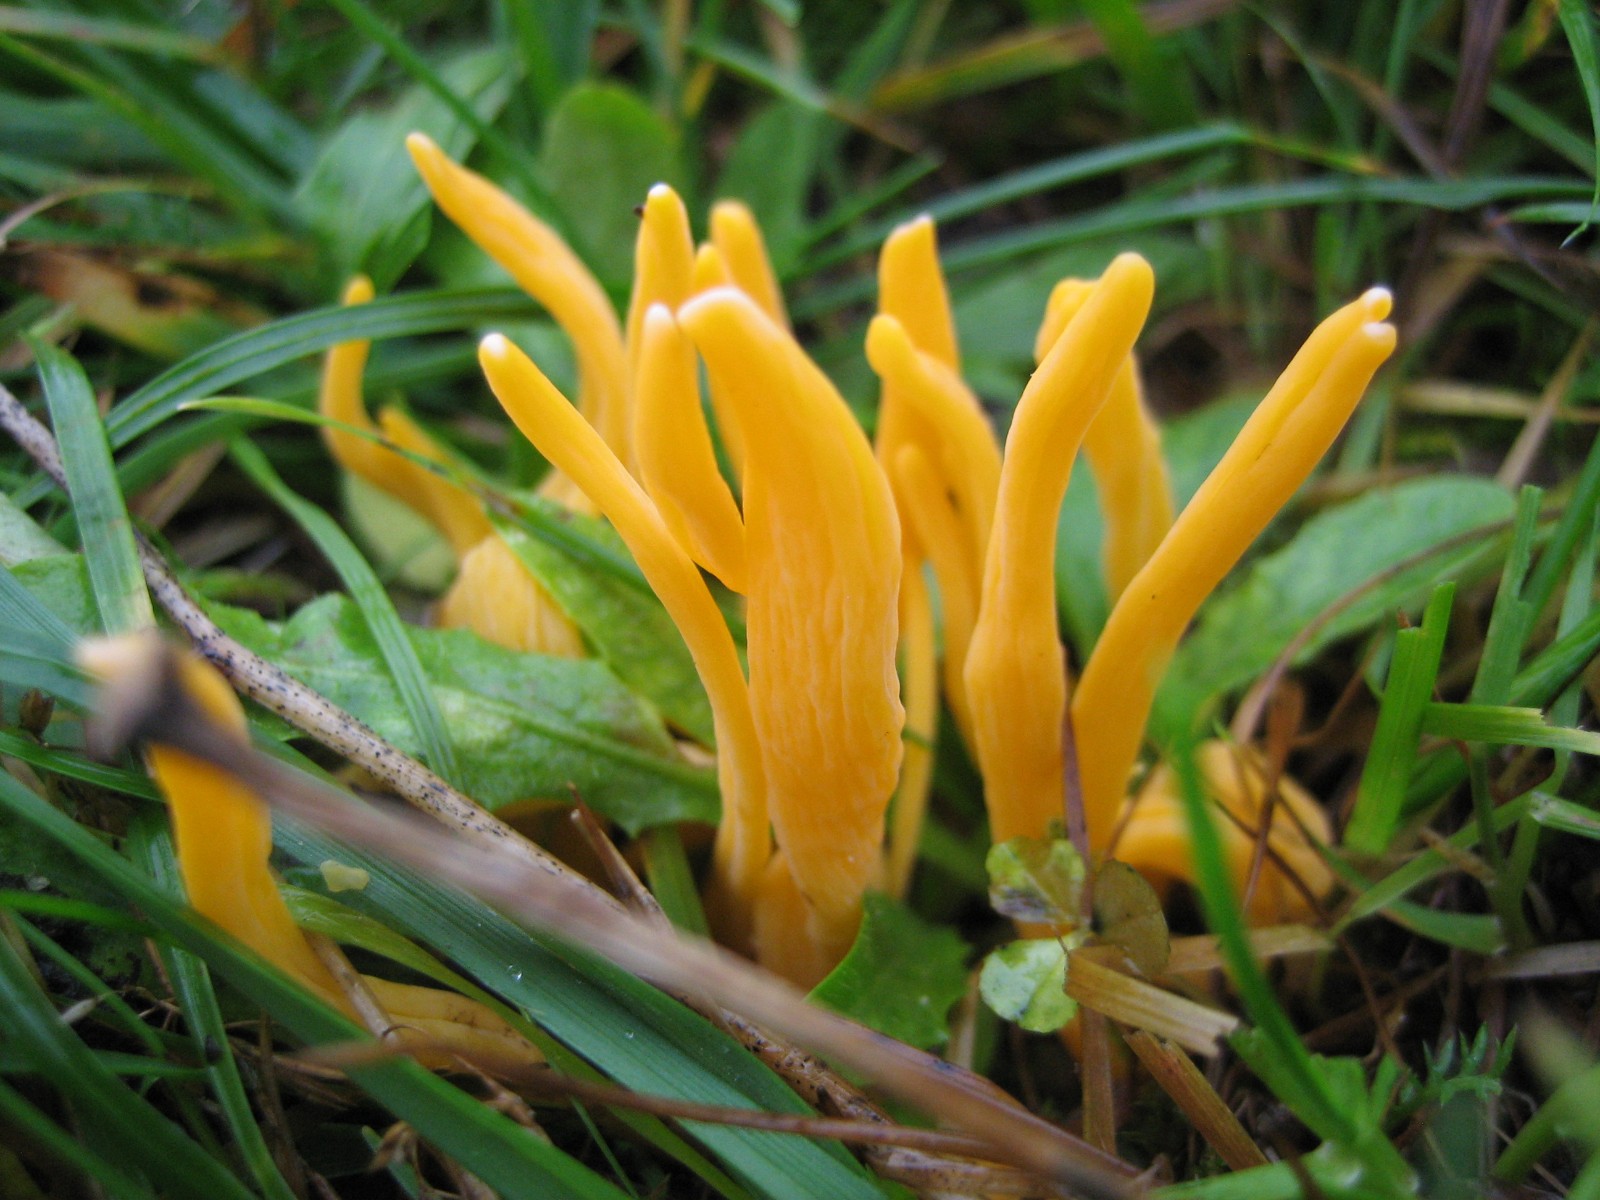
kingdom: Fungi
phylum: Basidiomycota
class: Agaricomycetes
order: Agaricales
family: Clavariaceae
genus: Clavulinopsis
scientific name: Clavulinopsis
